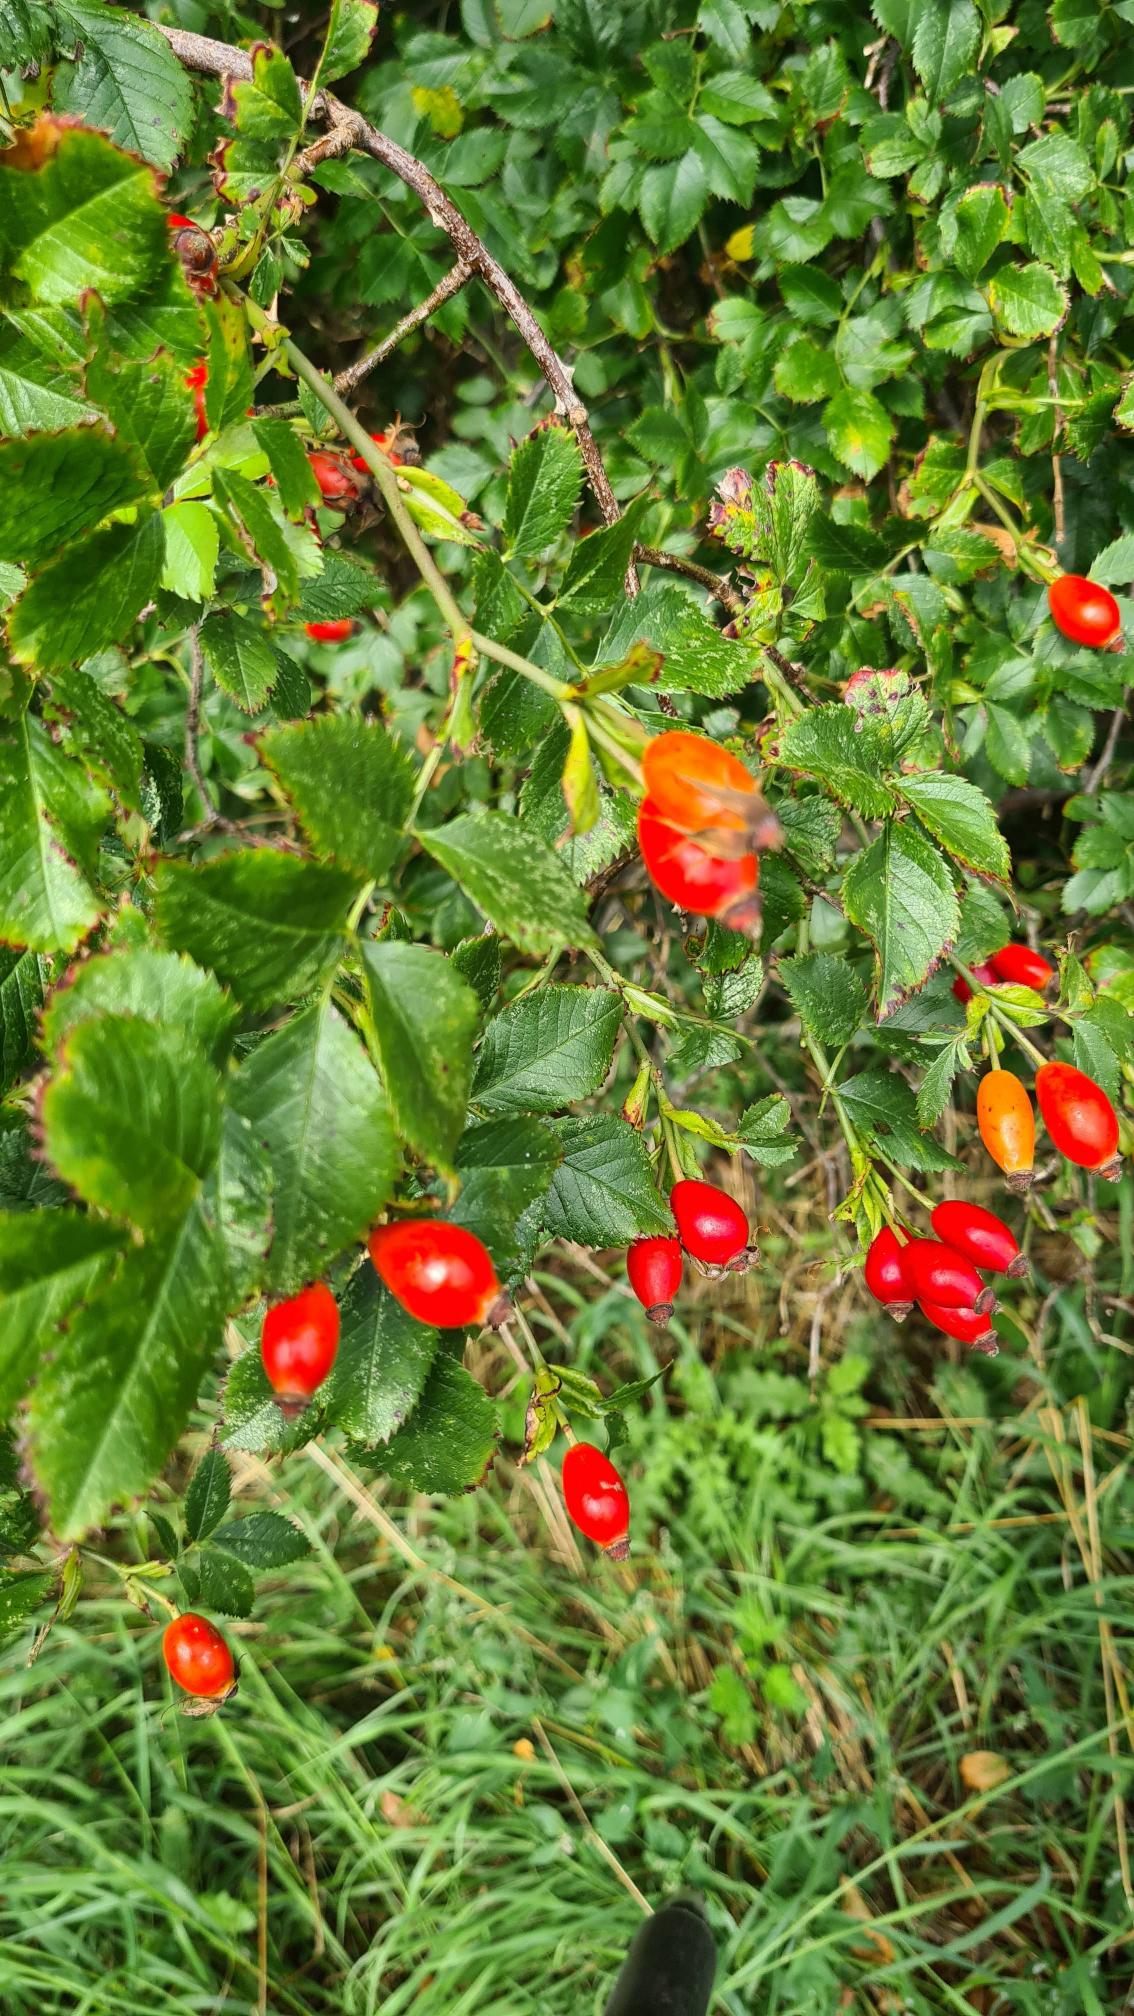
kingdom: Plantae
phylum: Tracheophyta
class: Magnoliopsida
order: Rosales
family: Rosaceae
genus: Rosa
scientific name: Rosa canina
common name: Glat hunde-rose
